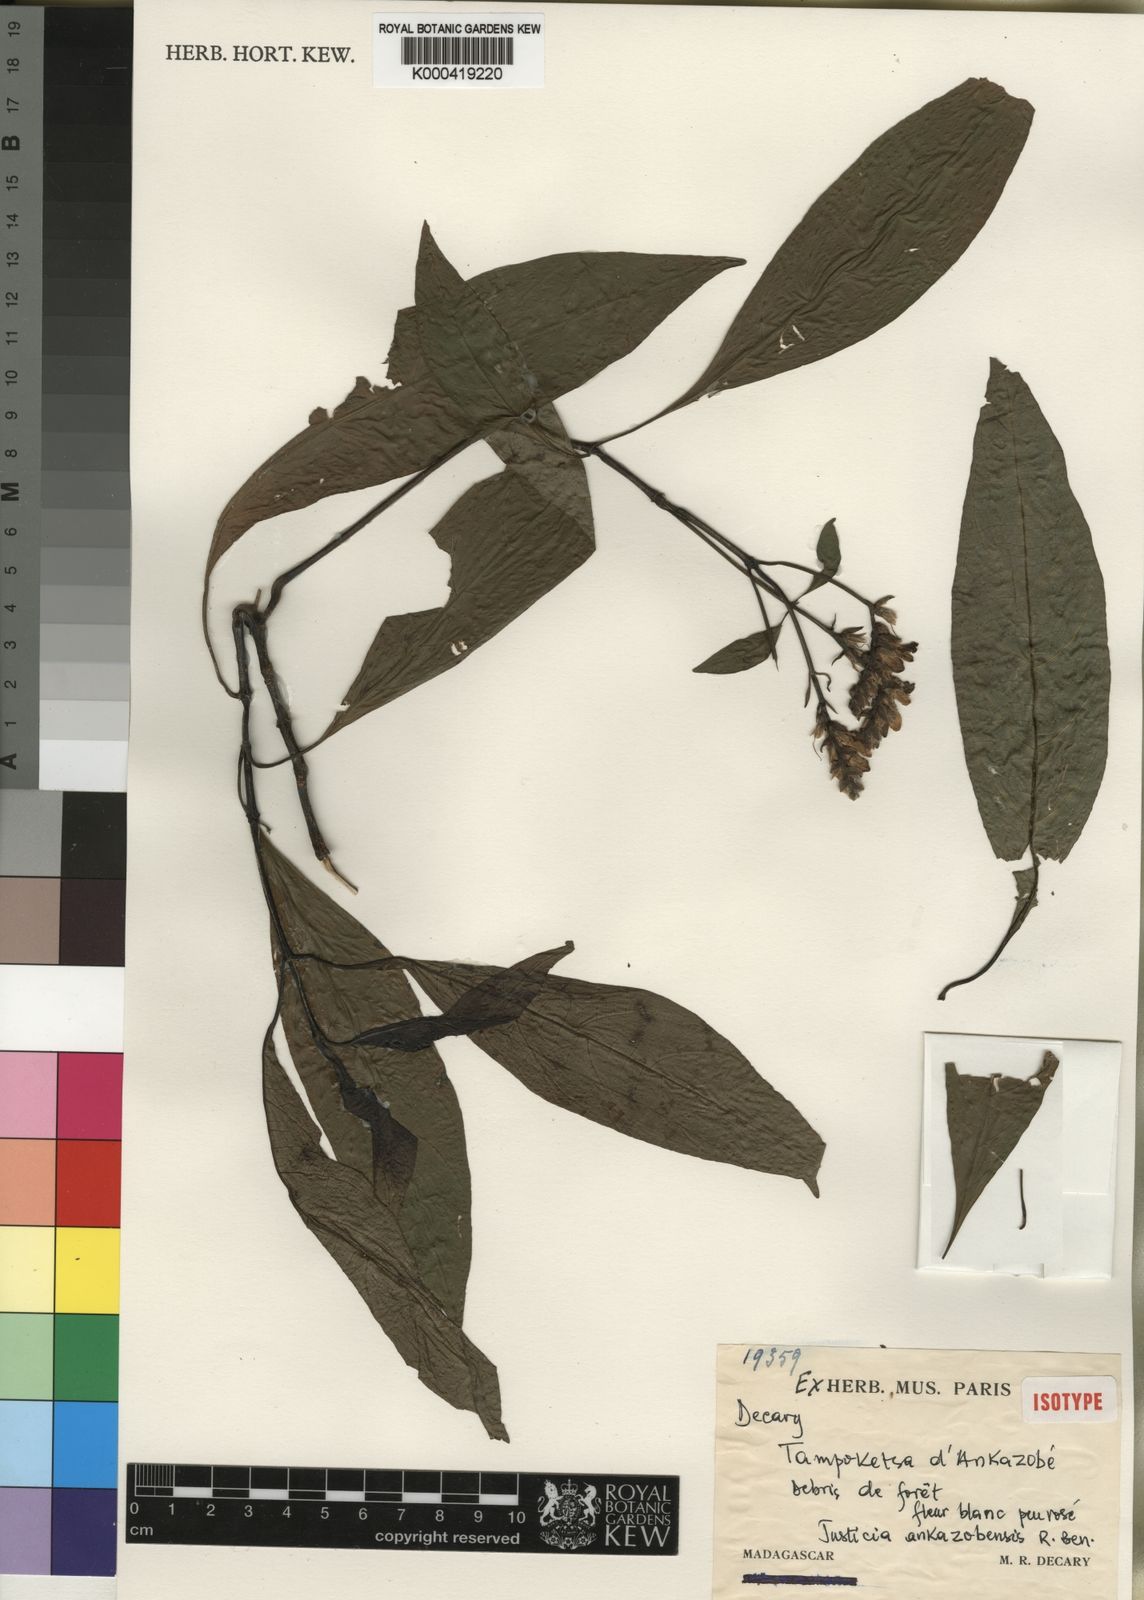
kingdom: Plantae
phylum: Tracheophyta
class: Magnoliopsida
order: Lamiales
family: Acanthaceae
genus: Justicia
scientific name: Justicia ankazobensis
